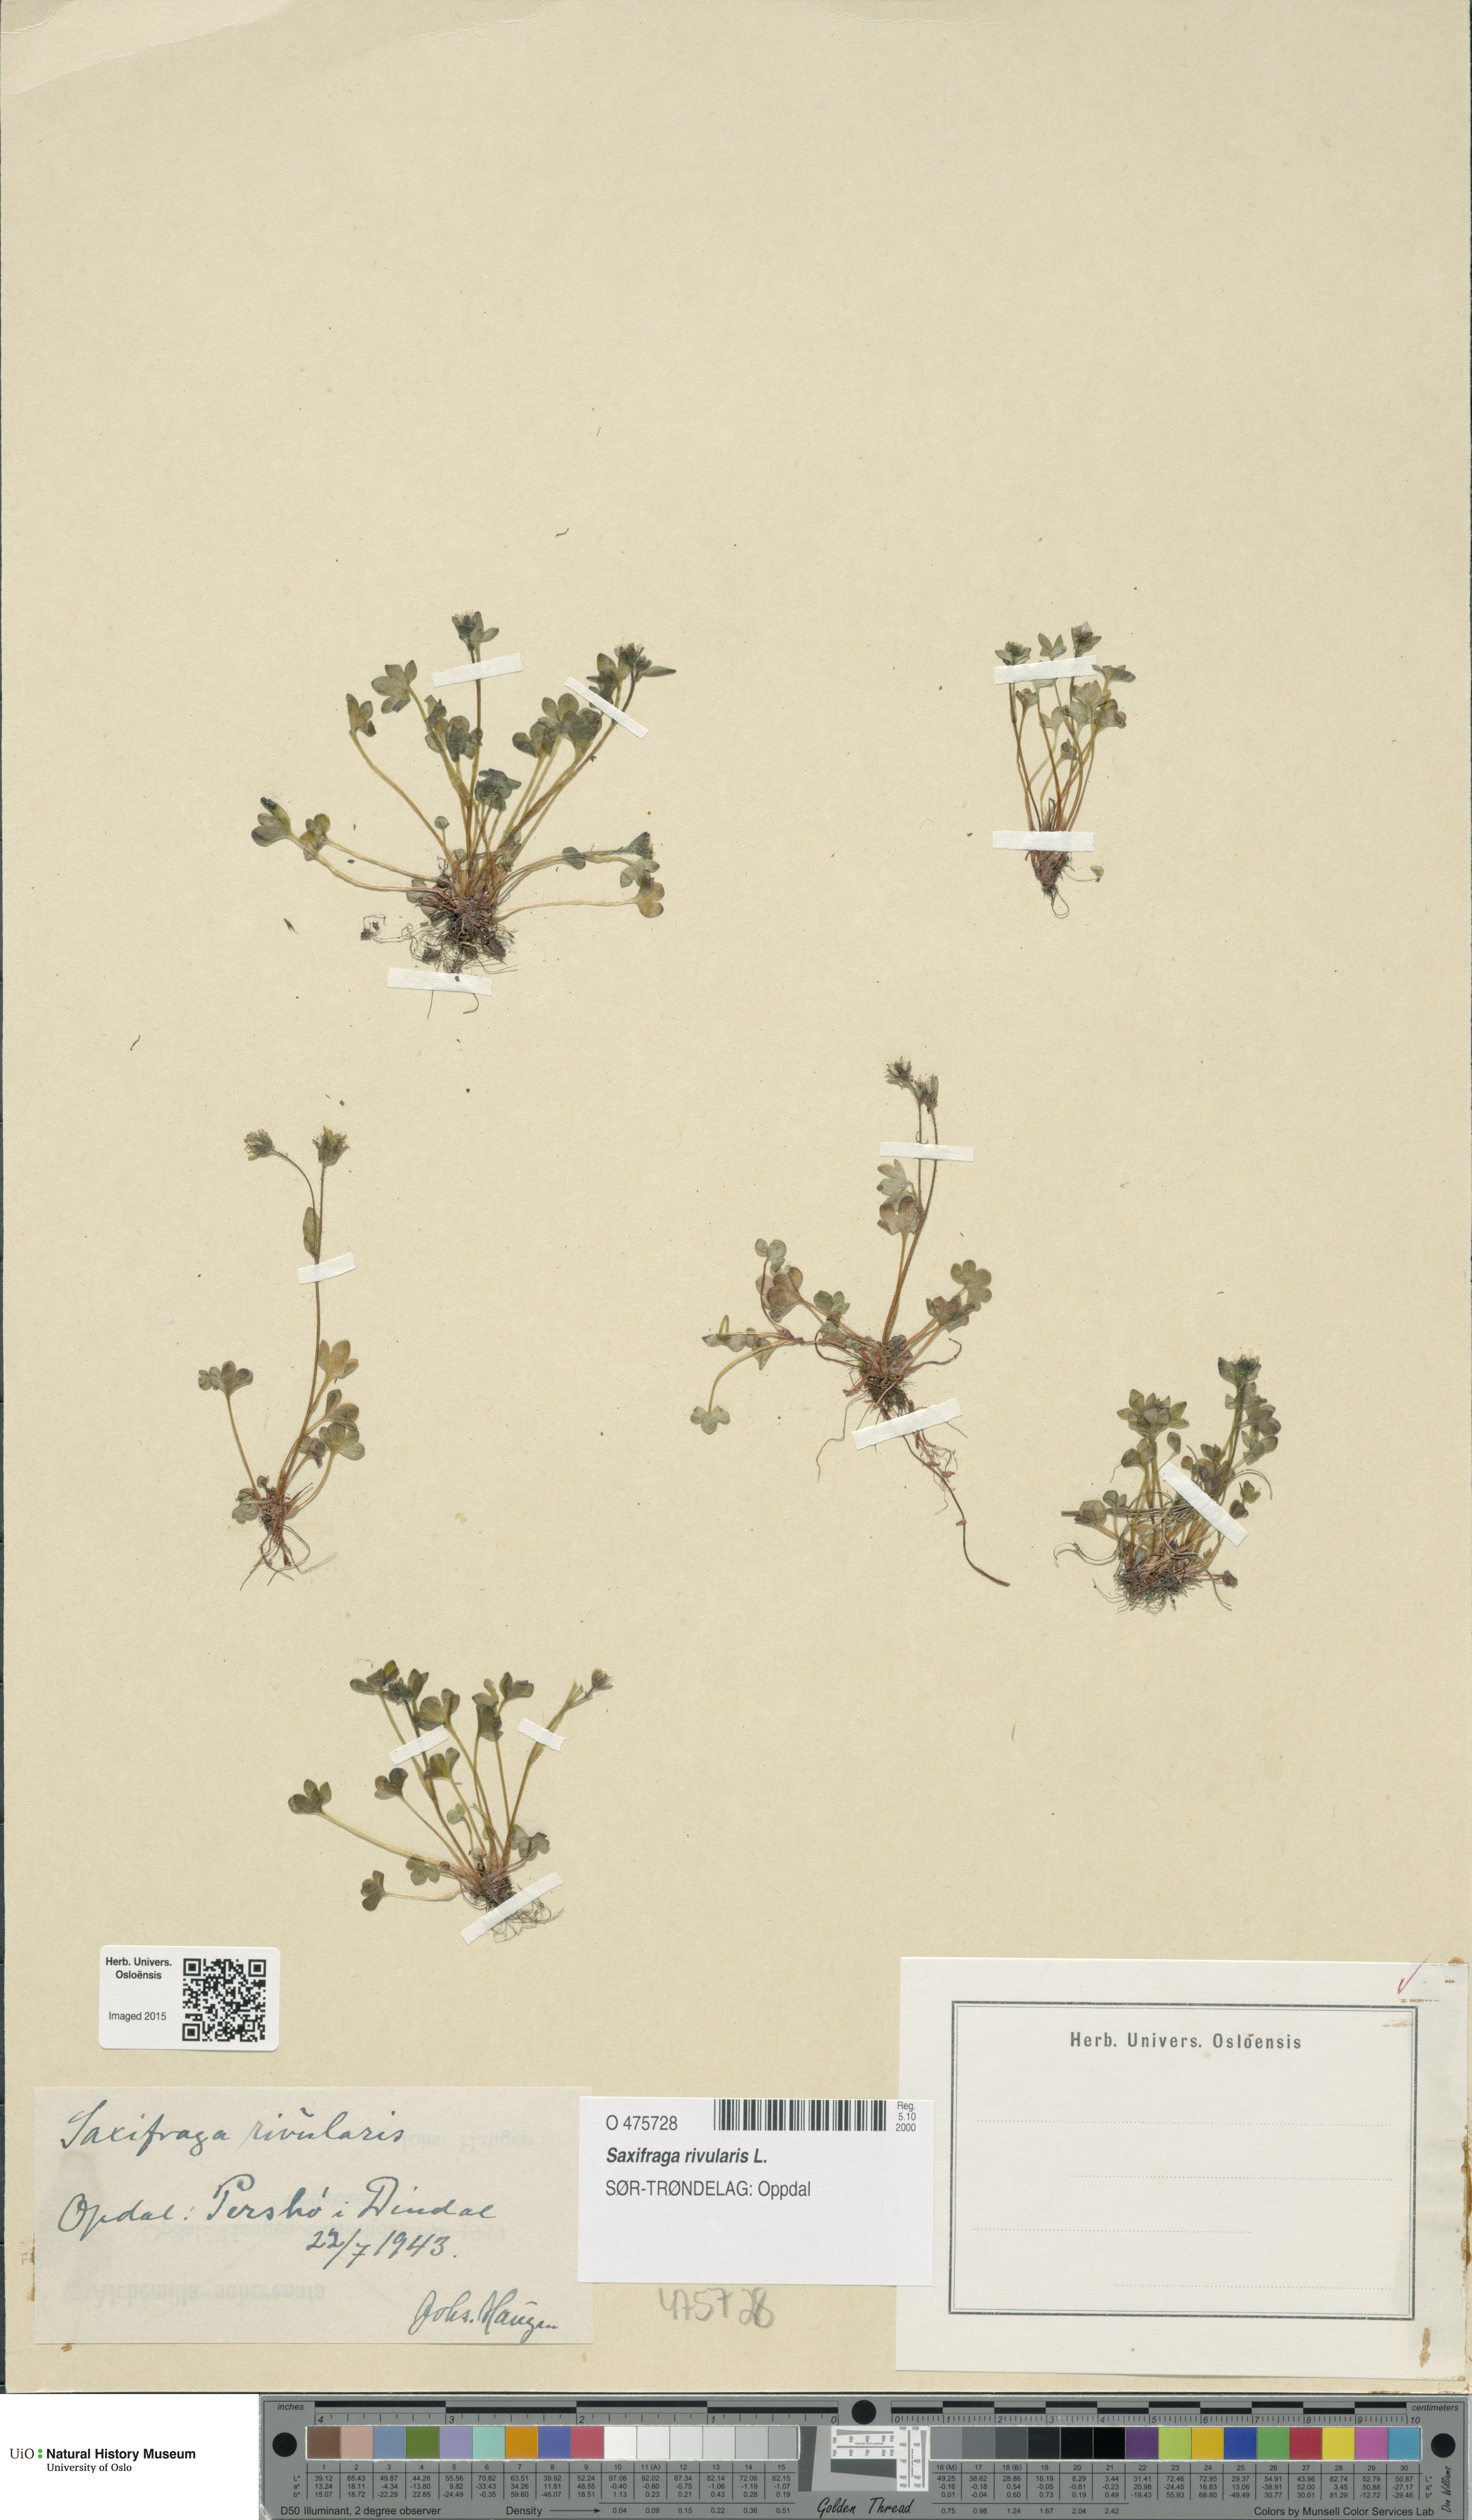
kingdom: Plantae
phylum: Tracheophyta
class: Magnoliopsida
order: Saxifragales
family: Saxifragaceae
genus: Saxifraga
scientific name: Saxifraga rivularis
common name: Highland saxifrage
